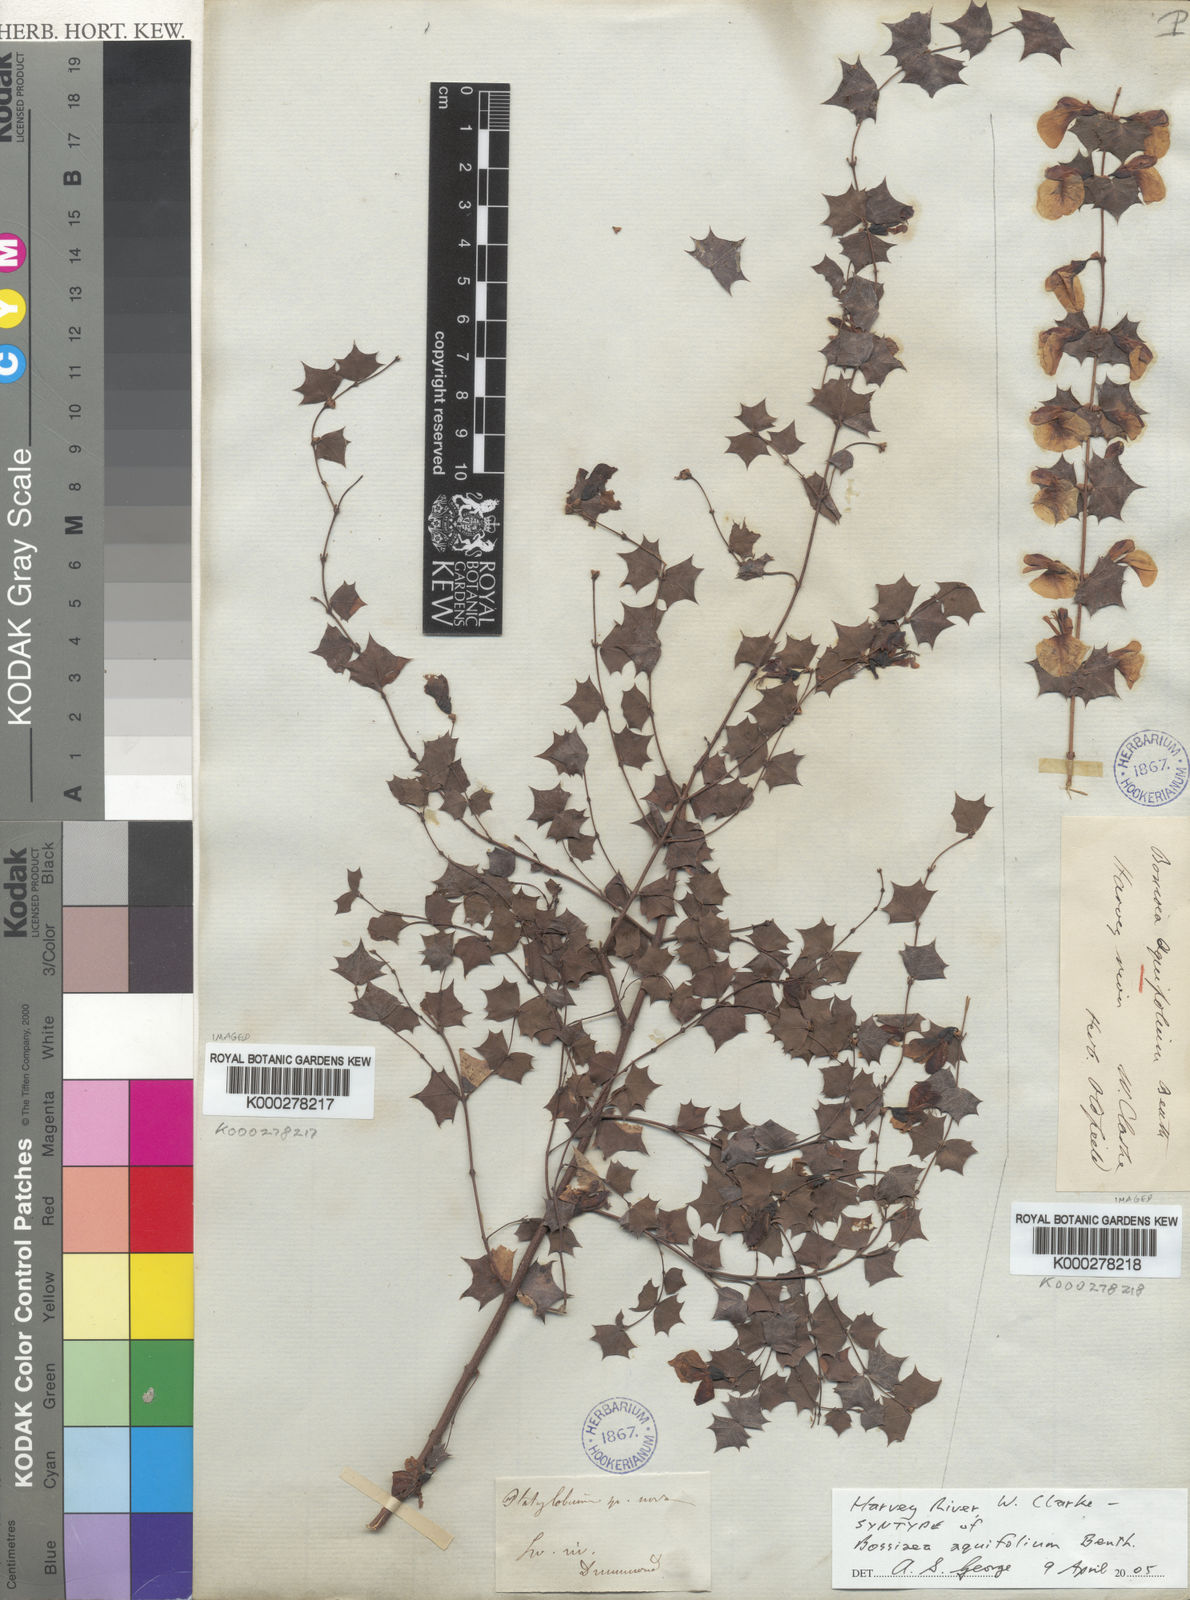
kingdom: Plantae
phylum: Tracheophyta
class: Magnoliopsida
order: Fabales
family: Fabaceae
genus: Bossiaea
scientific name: Bossiaea aquifolium
